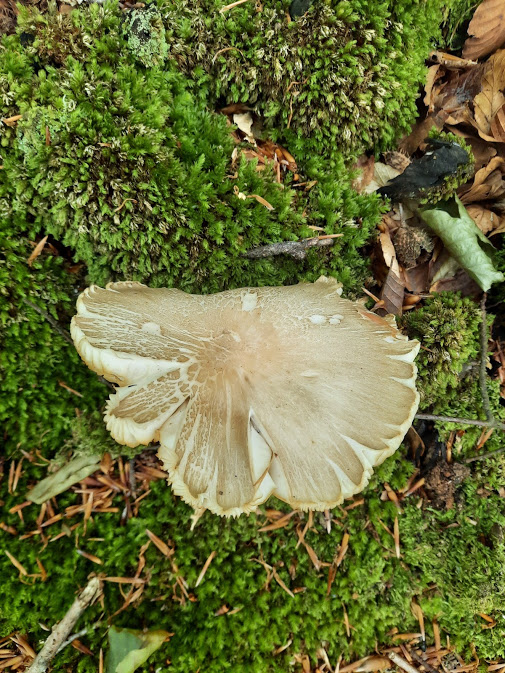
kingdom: Fungi
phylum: Basidiomycota
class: Agaricomycetes
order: Agaricales
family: Tricholomataceae
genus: Megacollybia
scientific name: Megacollybia platyphylla
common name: bredbladet væbnerhat
